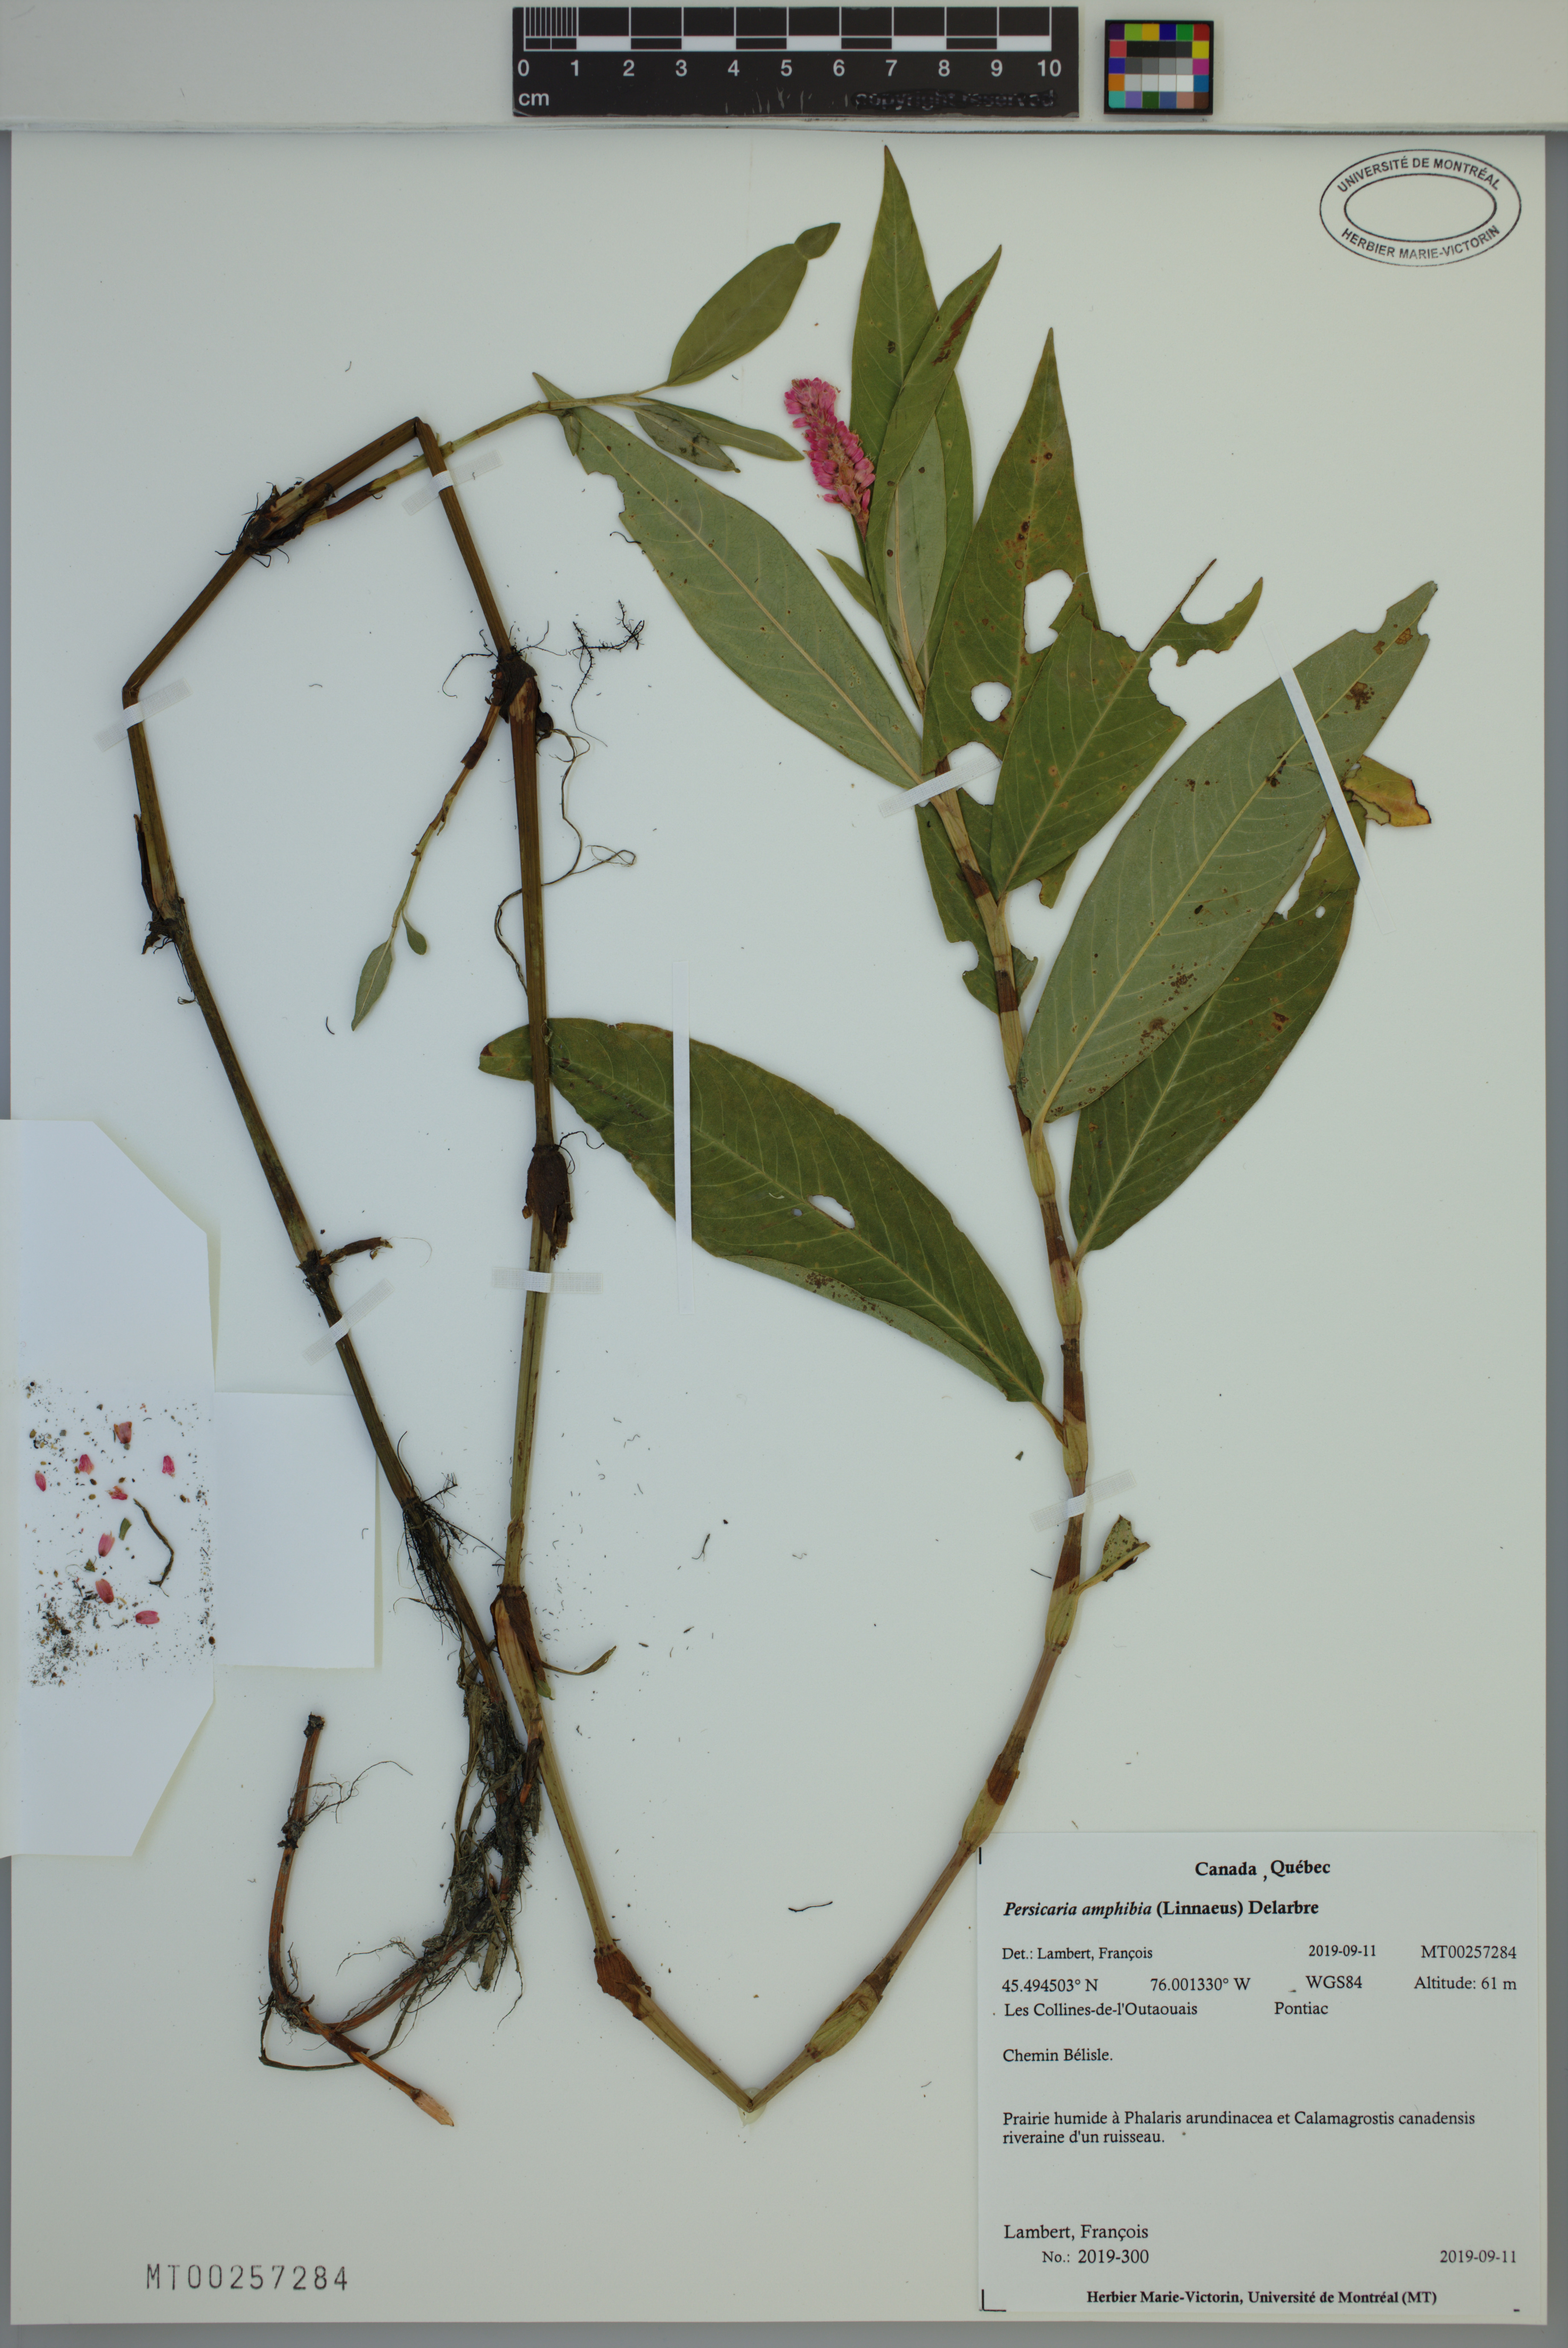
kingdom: Plantae
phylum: Tracheophyta
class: Magnoliopsida
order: Caryophyllales
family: Polygonaceae
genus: Persicaria
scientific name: Persicaria amphibia
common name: Amphibious bistort
